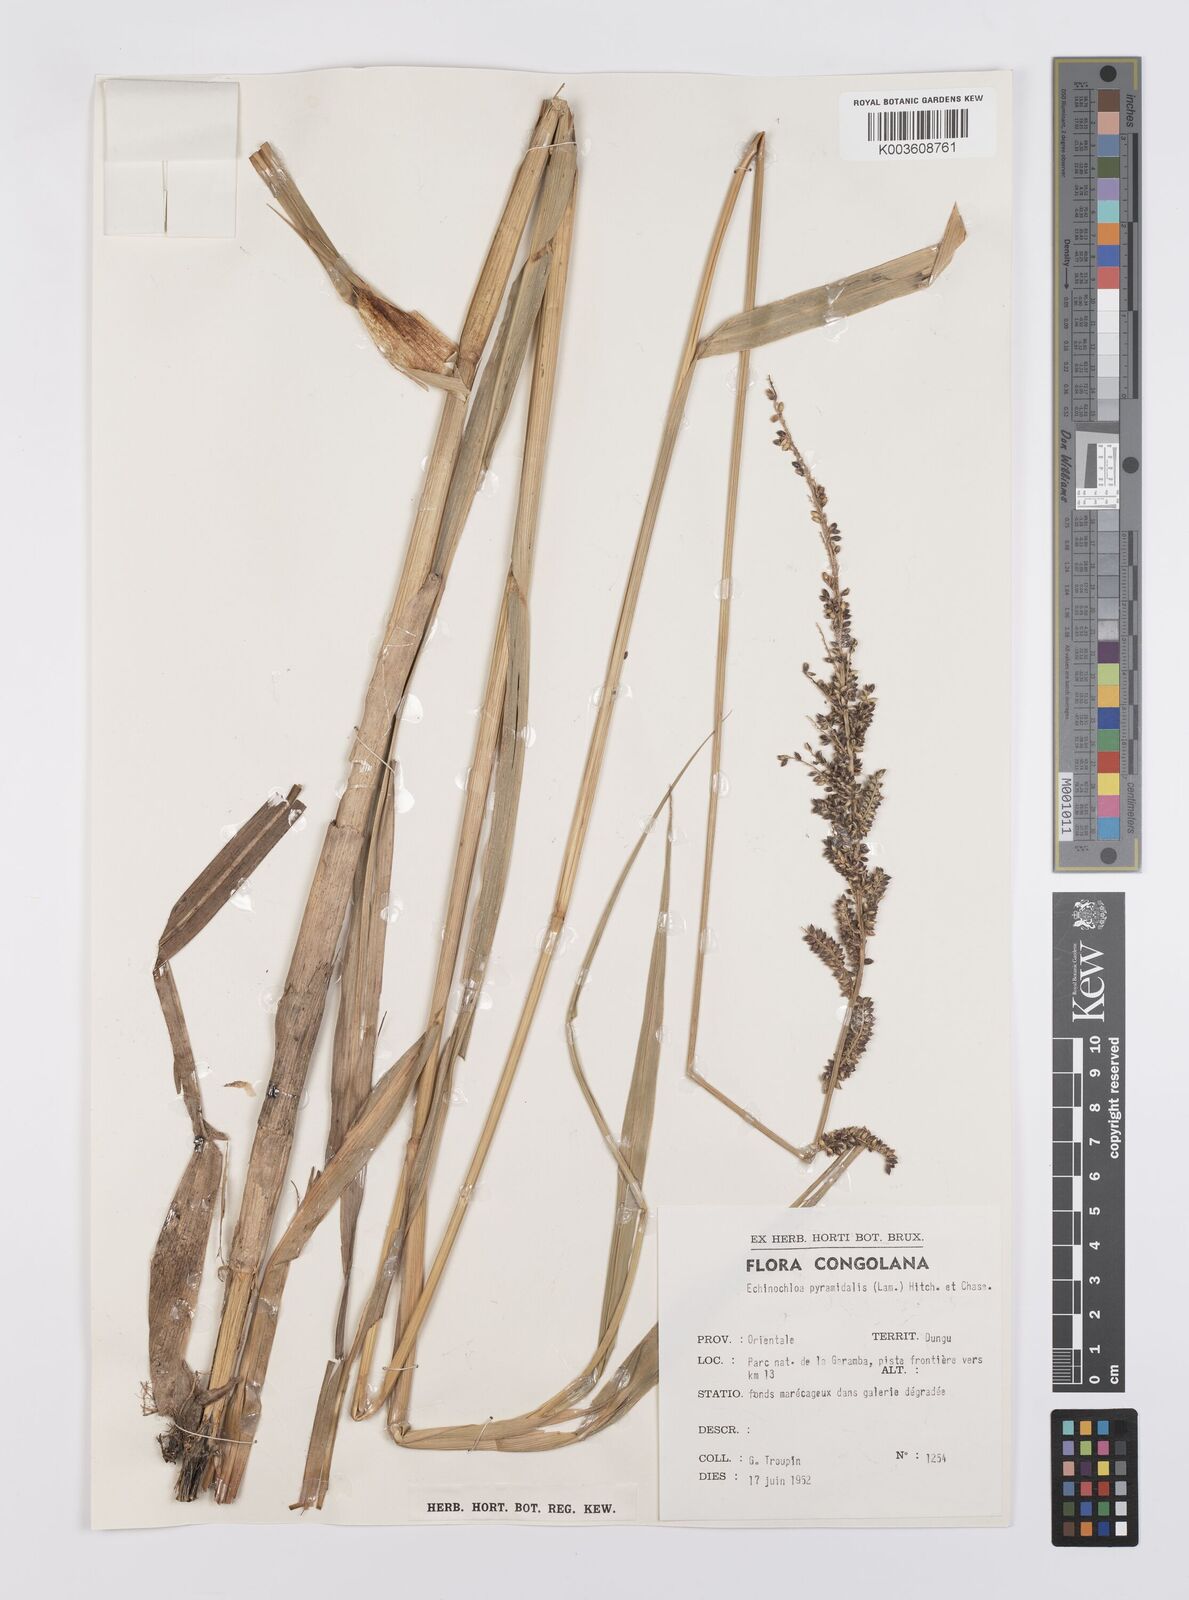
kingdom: Plantae
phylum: Tracheophyta
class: Liliopsida
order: Poales
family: Poaceae
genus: Echinochloa
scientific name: Echinochloa pyramidalis
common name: Antelope grass
